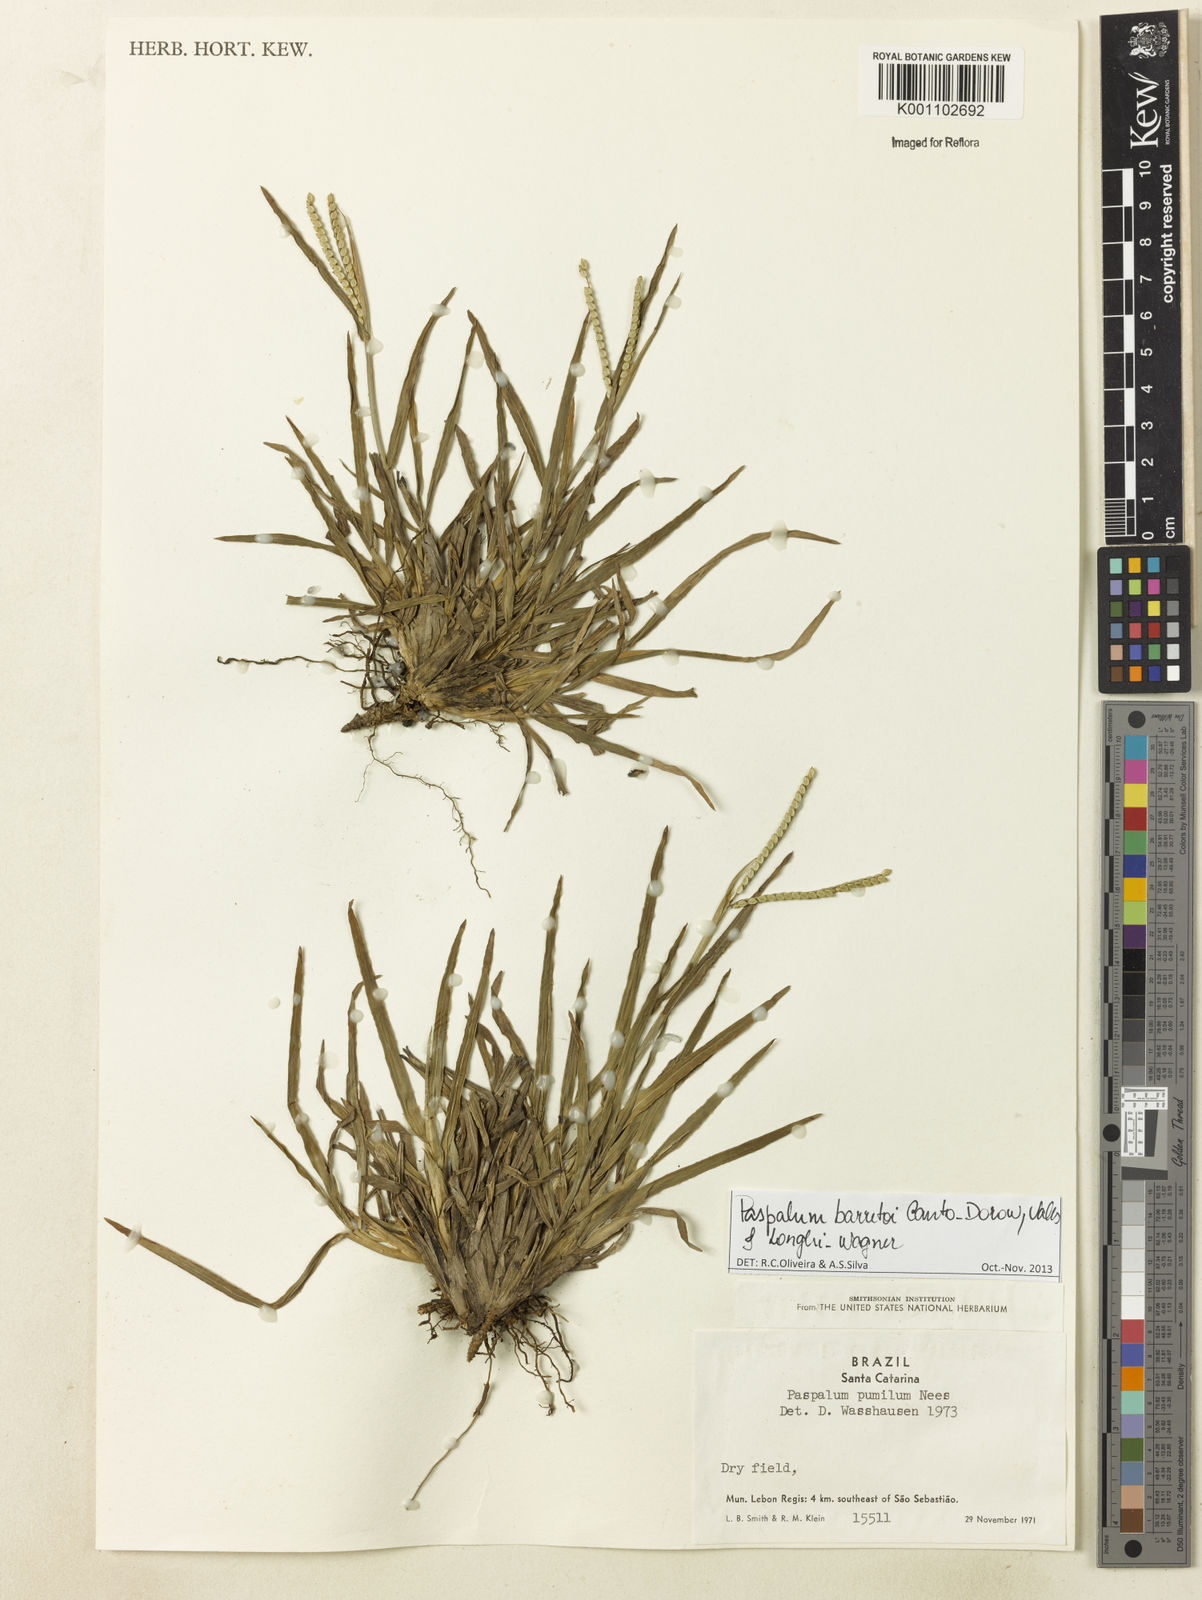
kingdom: Plantae
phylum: Tracheophyta
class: Liliopsida
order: Poales
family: Poaceae
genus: Paspalum
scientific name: Paspalum minus
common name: Matted paspalum
